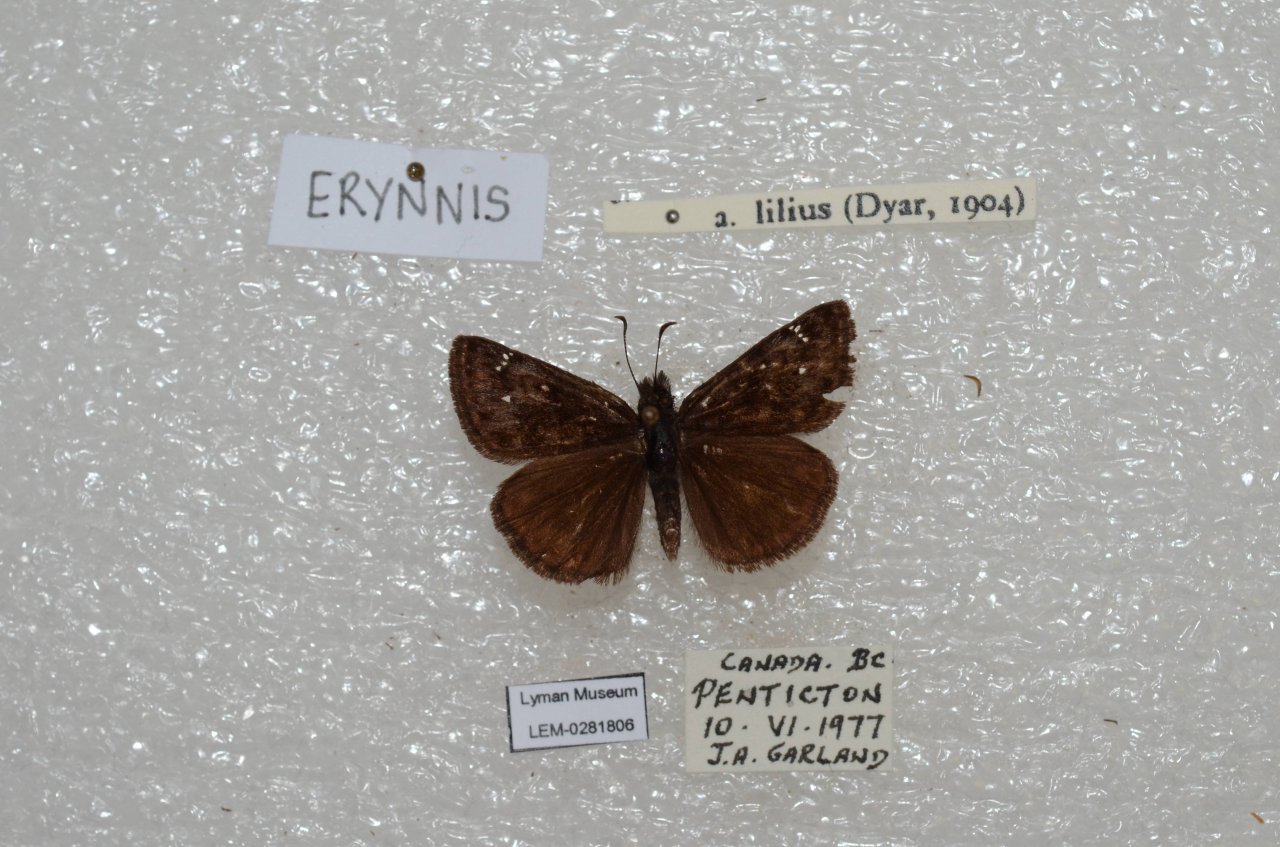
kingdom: Animalia
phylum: Arthropoda
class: Insecta
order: Lepidoptera
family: Hesperiidae
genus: Erynnis
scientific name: Erynnis pacuvius
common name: Pacuvius Duskywing
